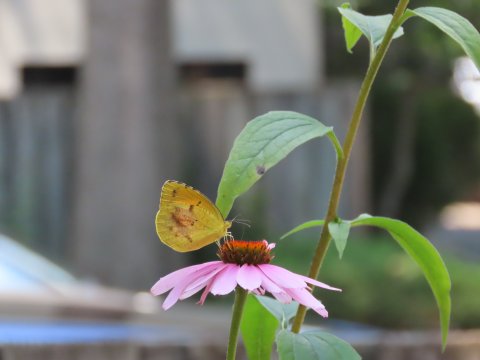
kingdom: Animalia
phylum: Arthropoda
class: Insecta
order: Lepidoptera
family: Pieridae
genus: Abaeis
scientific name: Abaeis nicippe
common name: Sleepy Orange
